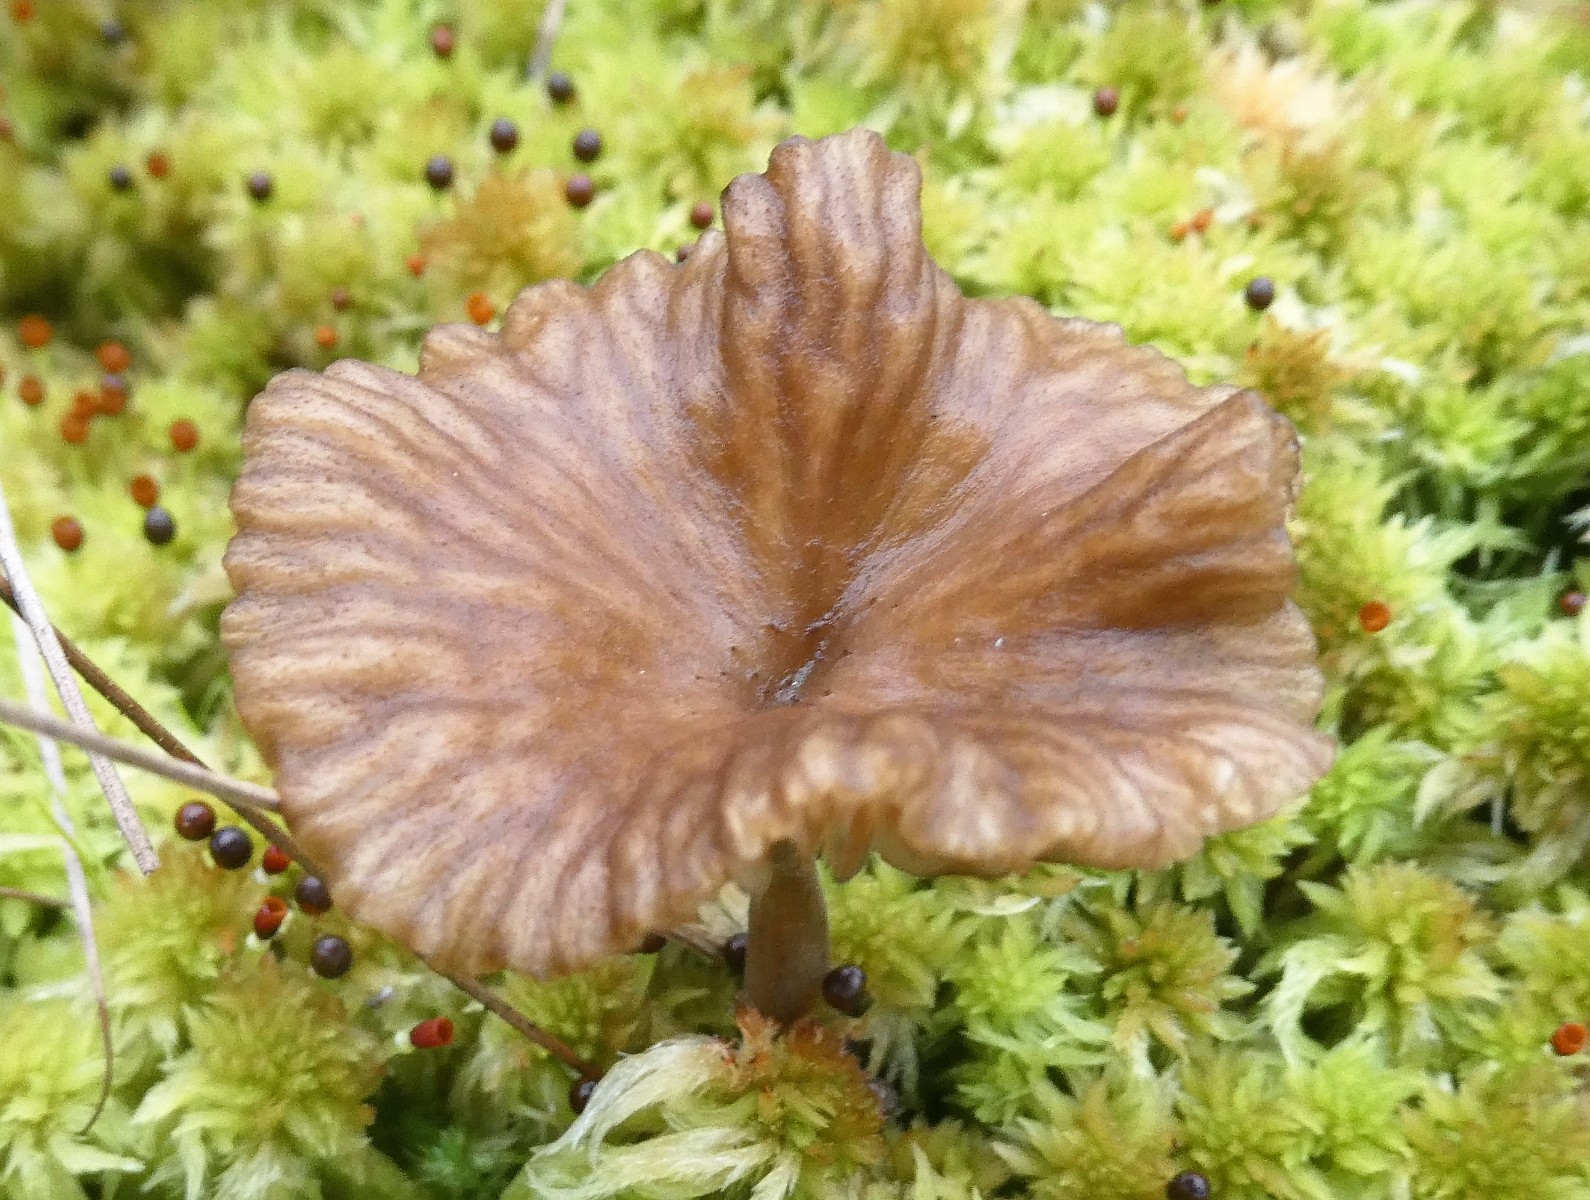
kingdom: Fungi
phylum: Basidiomycota
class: Agaricomycetes
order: Agaricales
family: Hygrophoraceae
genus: Arrhenia
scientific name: Arrhenia gerardiana
